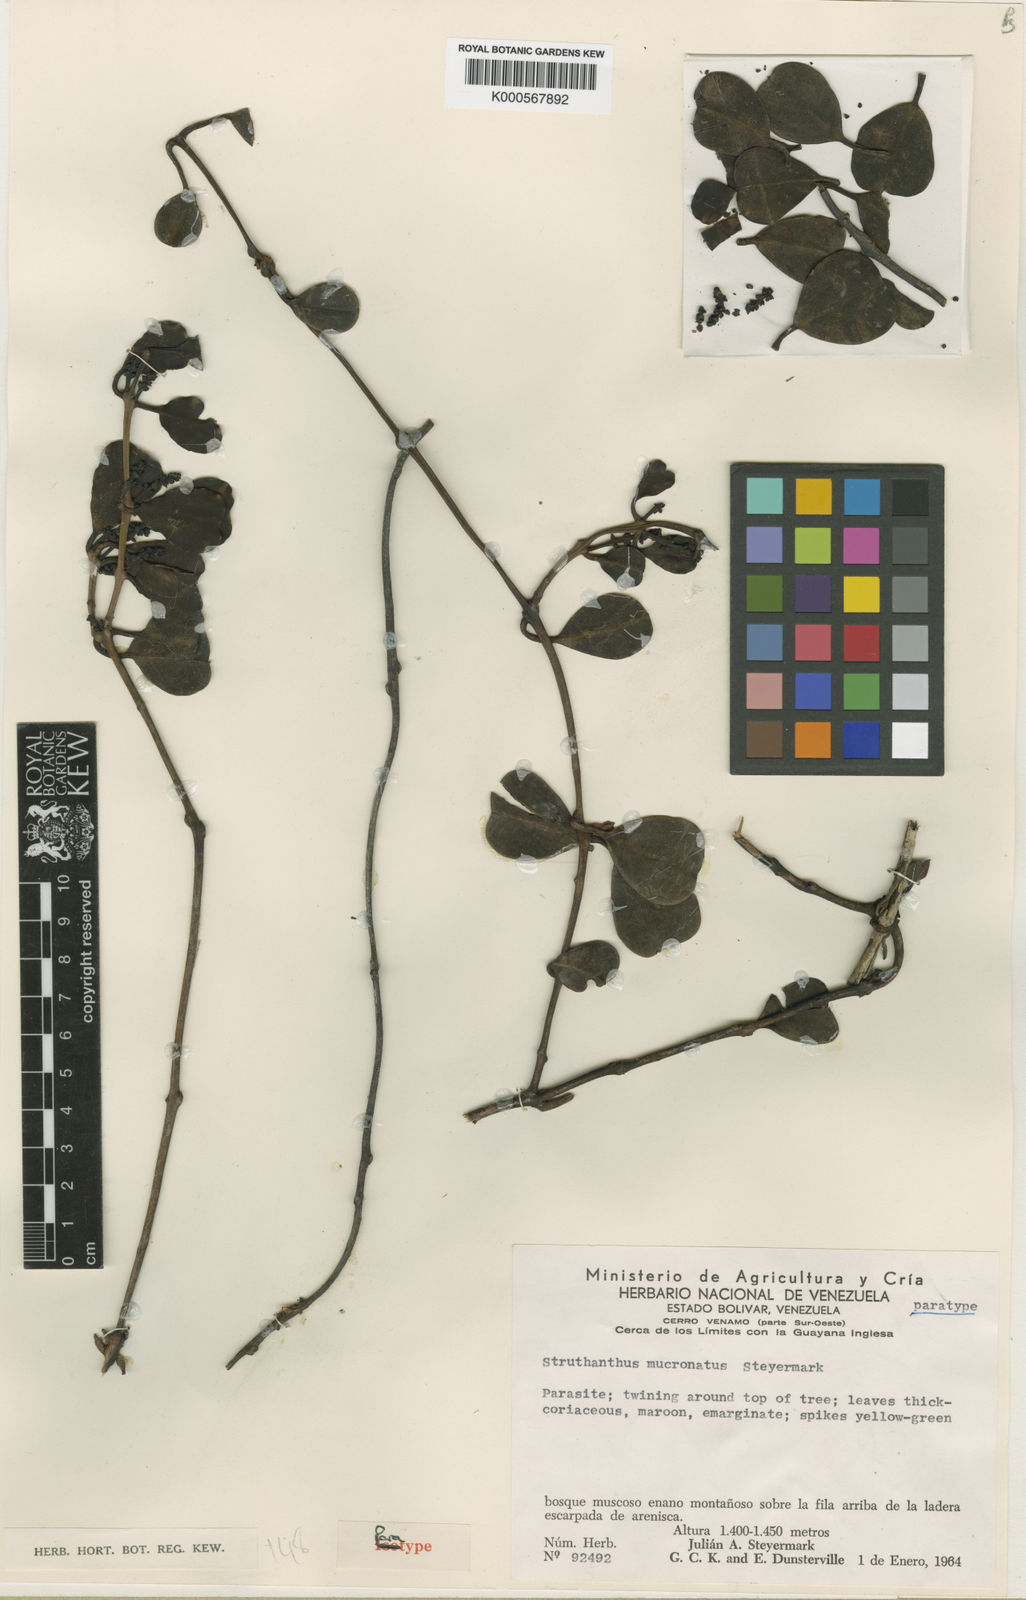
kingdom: Plantae
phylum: Tracheophyta
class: Magnoliopsida
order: Santalales
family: Loranthaceae
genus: Struthanthus
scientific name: Struthanthus gracilis
